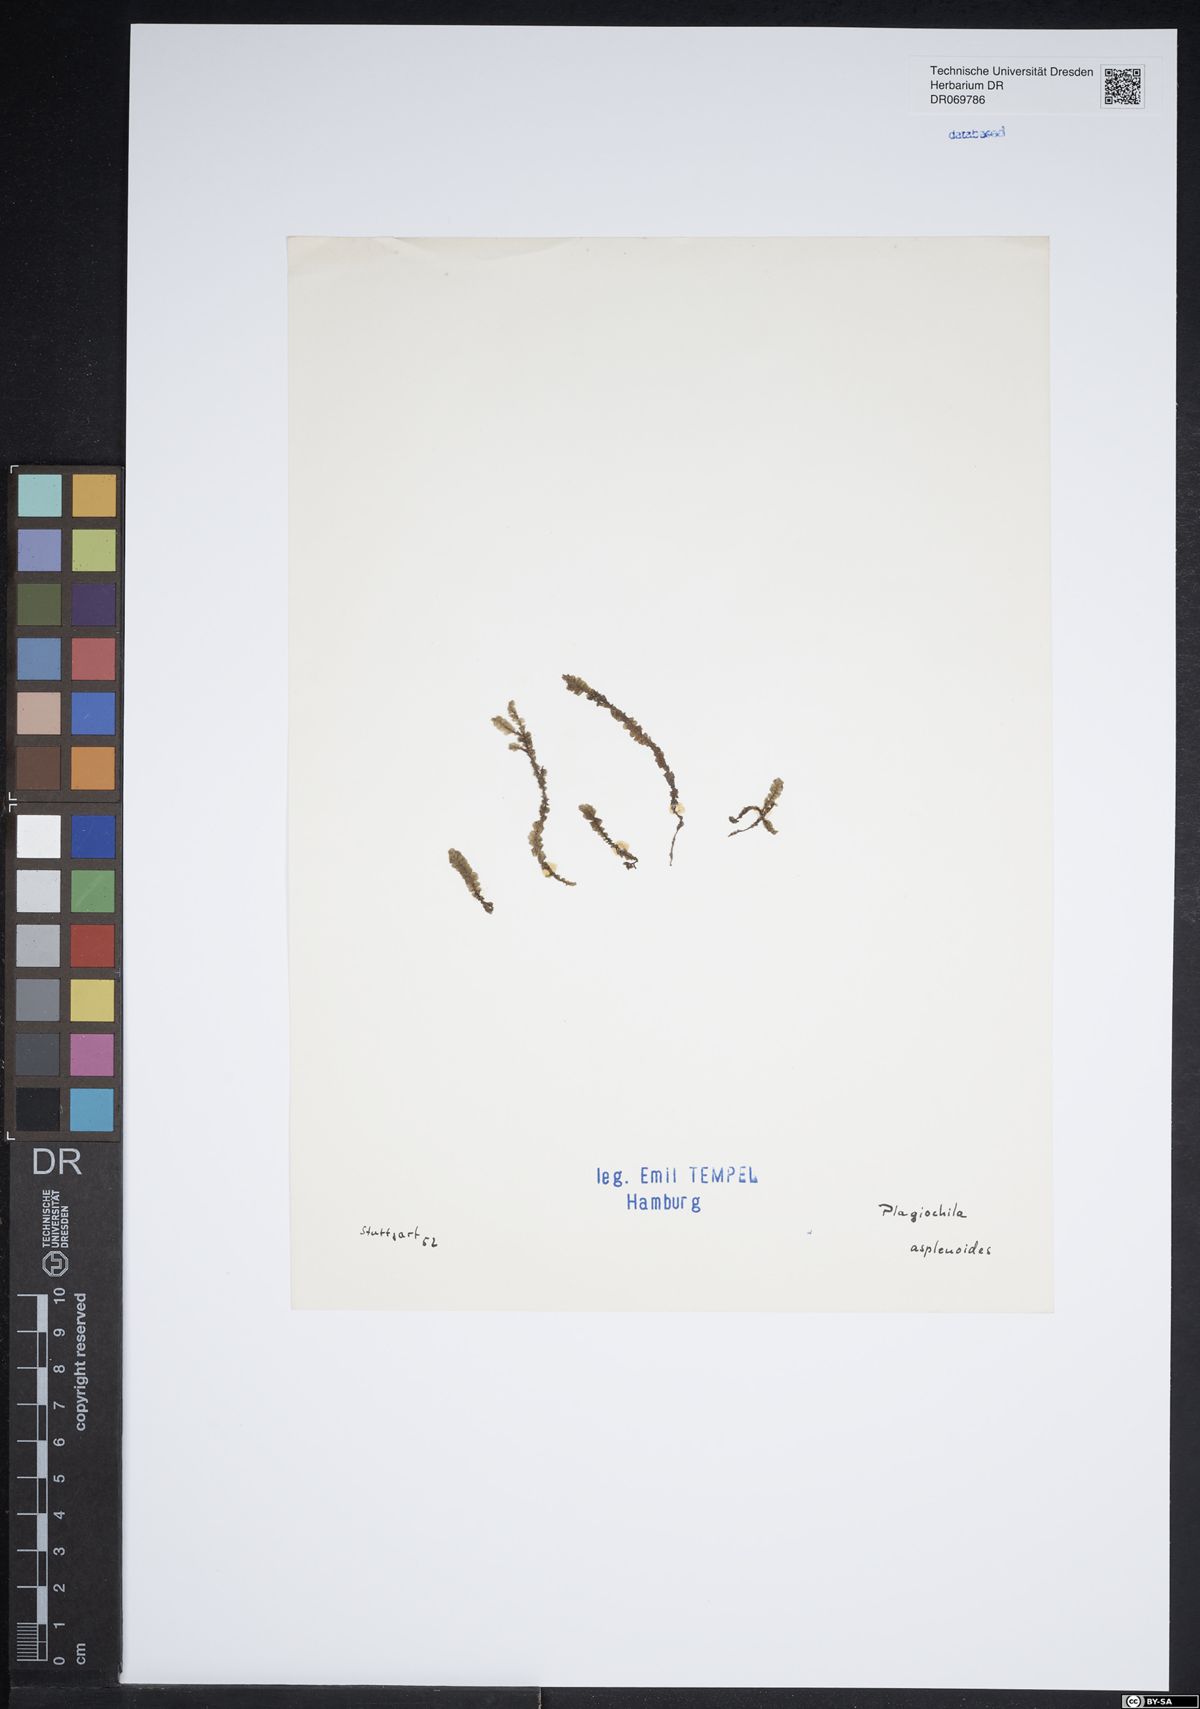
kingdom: Plantae
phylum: Marchantiophyta
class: Jungermanniopsida
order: Jungermanniales
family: Plagiochilaceae
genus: Plagiochila
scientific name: Plagiochila asplenioides
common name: Greater featherwort
